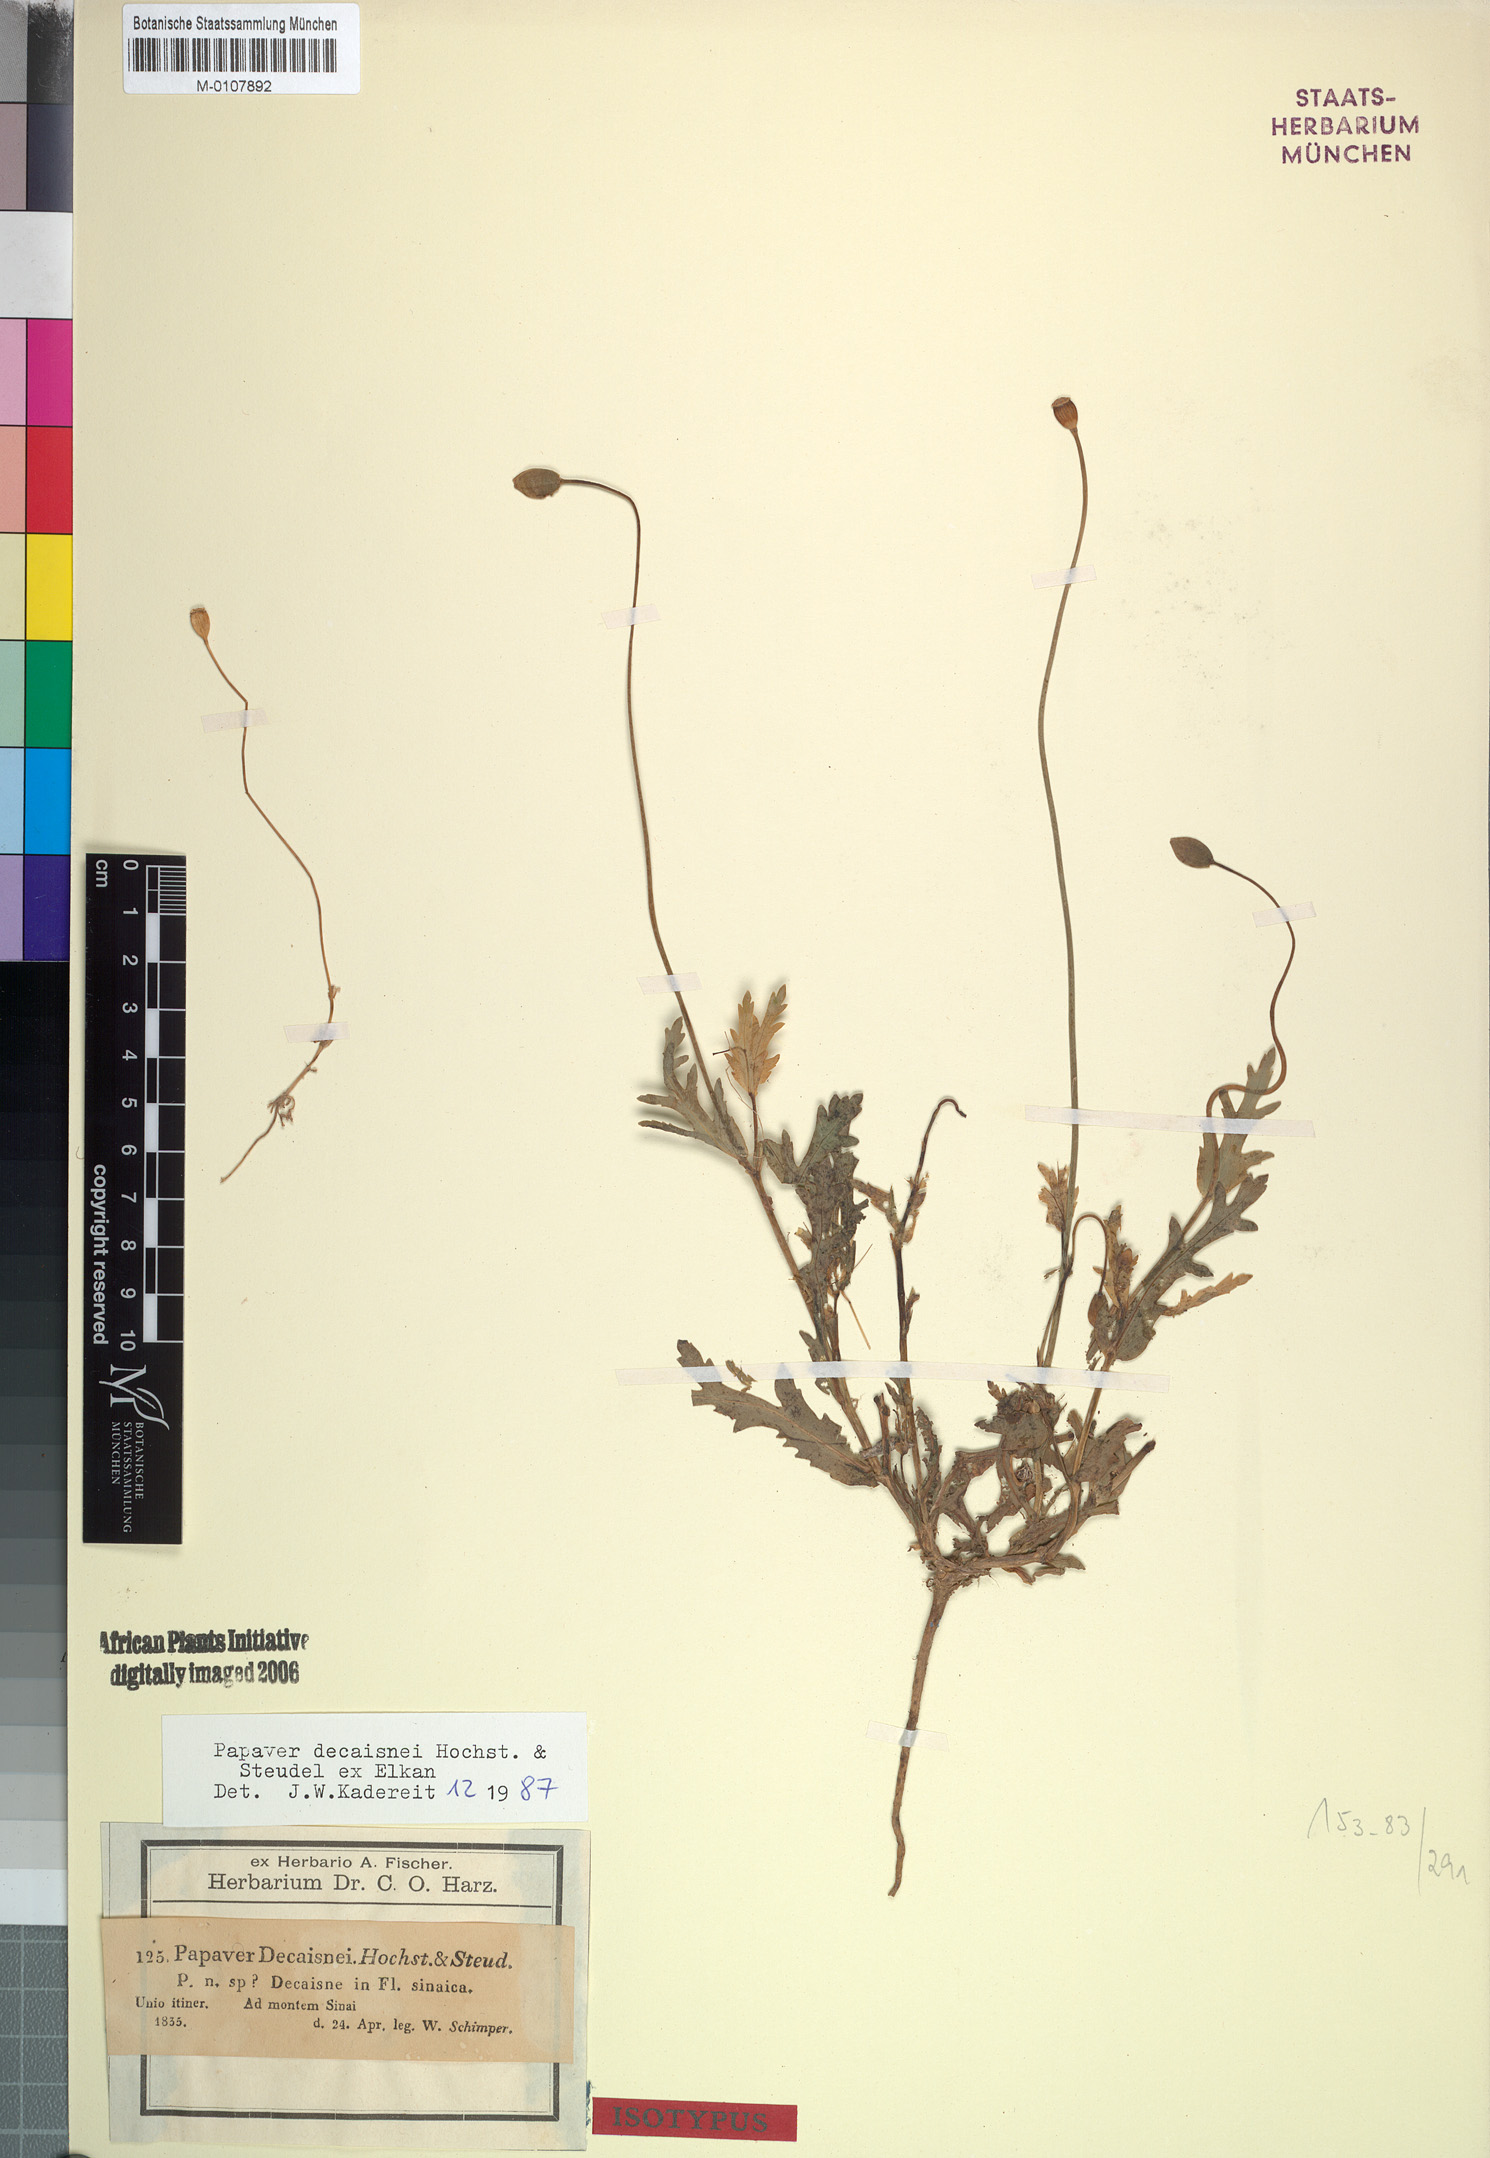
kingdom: Plantae
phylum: Tracheophyta
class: Magnoliopsida
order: Ranunculales
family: Papaveraceae
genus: Papaver
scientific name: Papaver decaisnei
